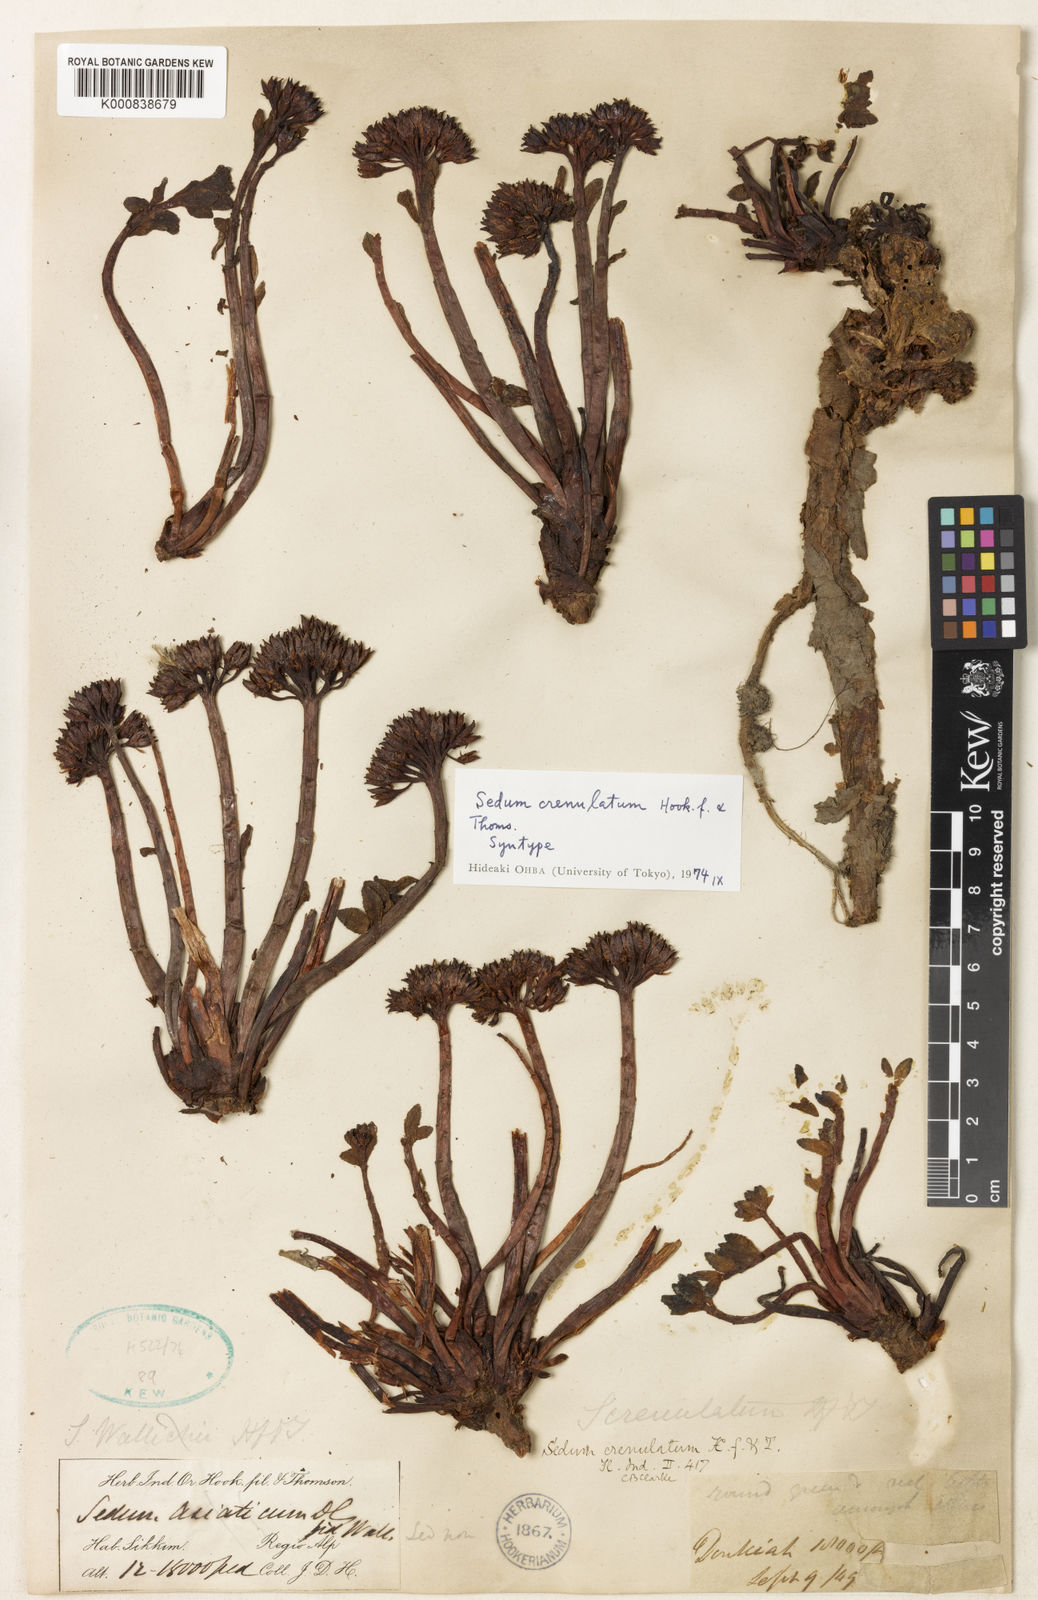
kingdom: Plantae
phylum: Tracheophyta
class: Magnoliopsida
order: Saxifragales
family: Crassulaceae
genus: Rhodiola
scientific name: Rhodiola crenulata
